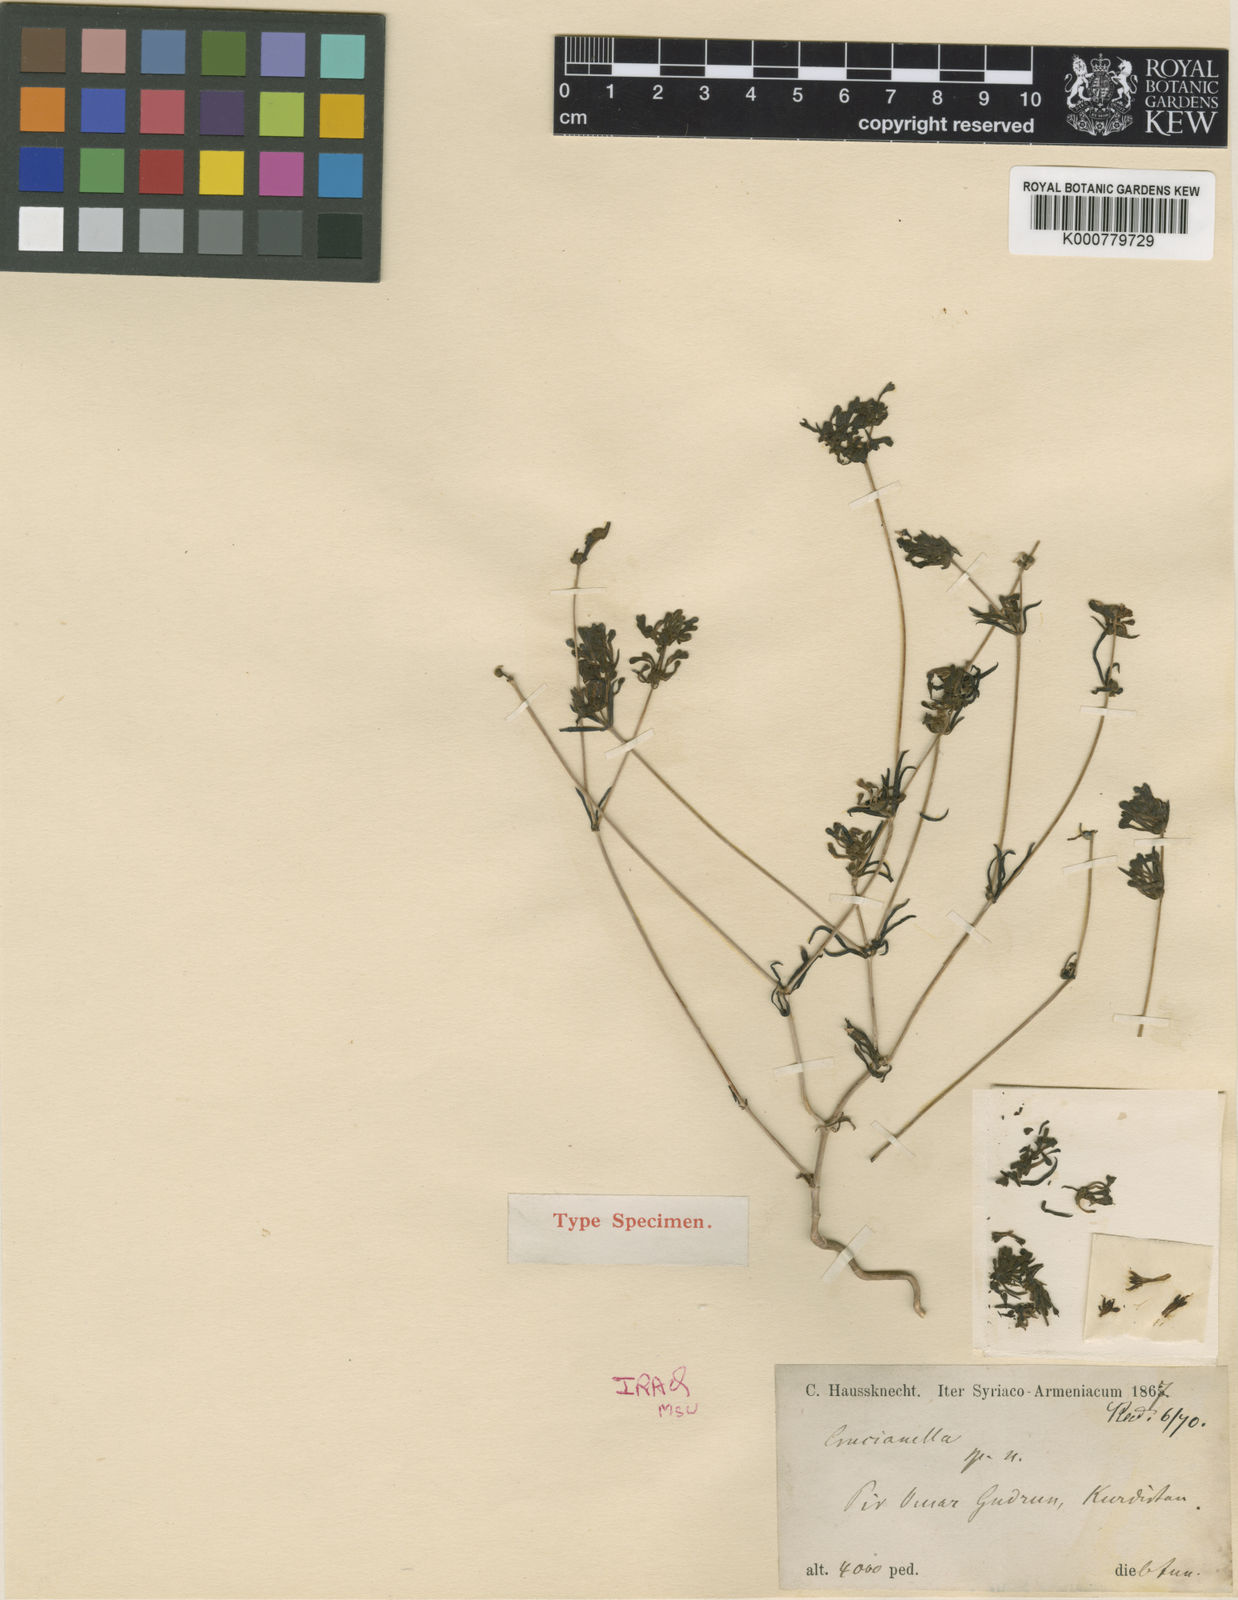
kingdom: Plantae
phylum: Tracheophyta
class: Magnoliopsida
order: Gentianales
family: Rubiaceae
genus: Asperula
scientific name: Asperula insignis
